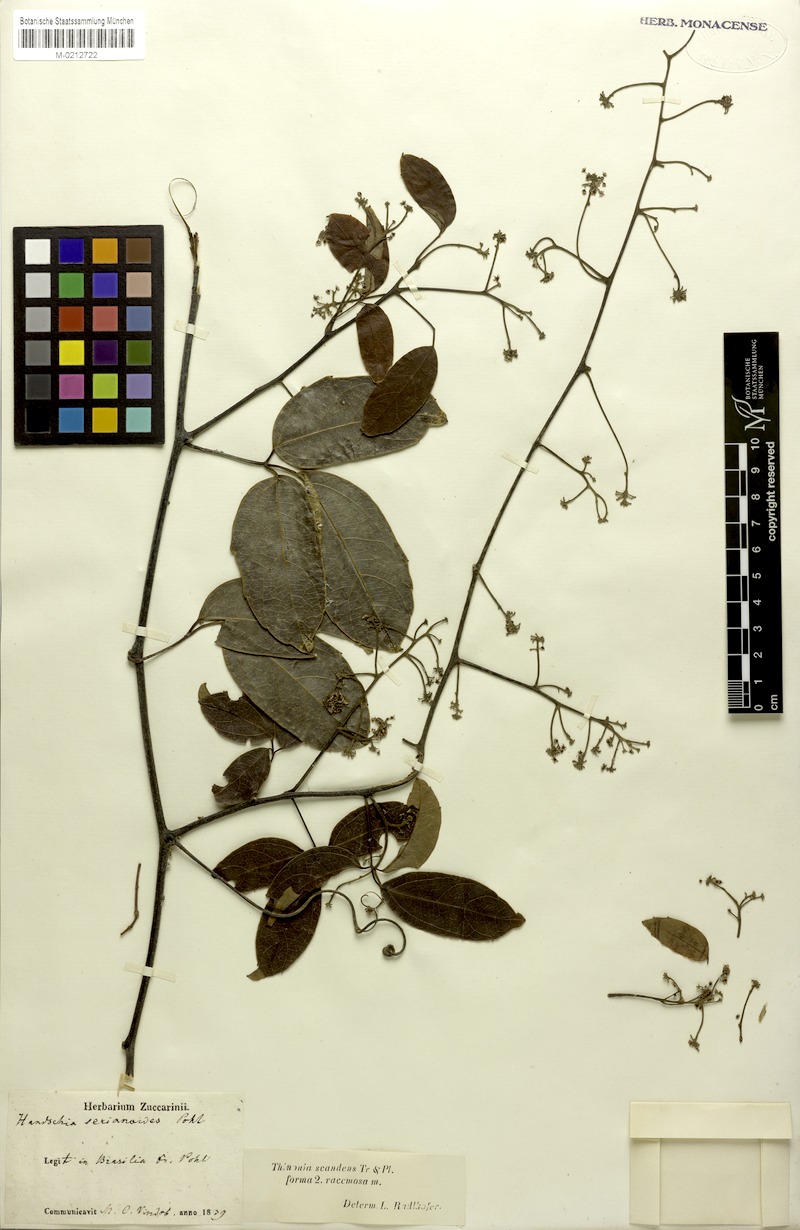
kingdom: Plantae
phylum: Tracheophyta
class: Magnoliopsida
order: Sapindales
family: Sapindaceae
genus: Thinouia
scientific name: Thinouia scandens
